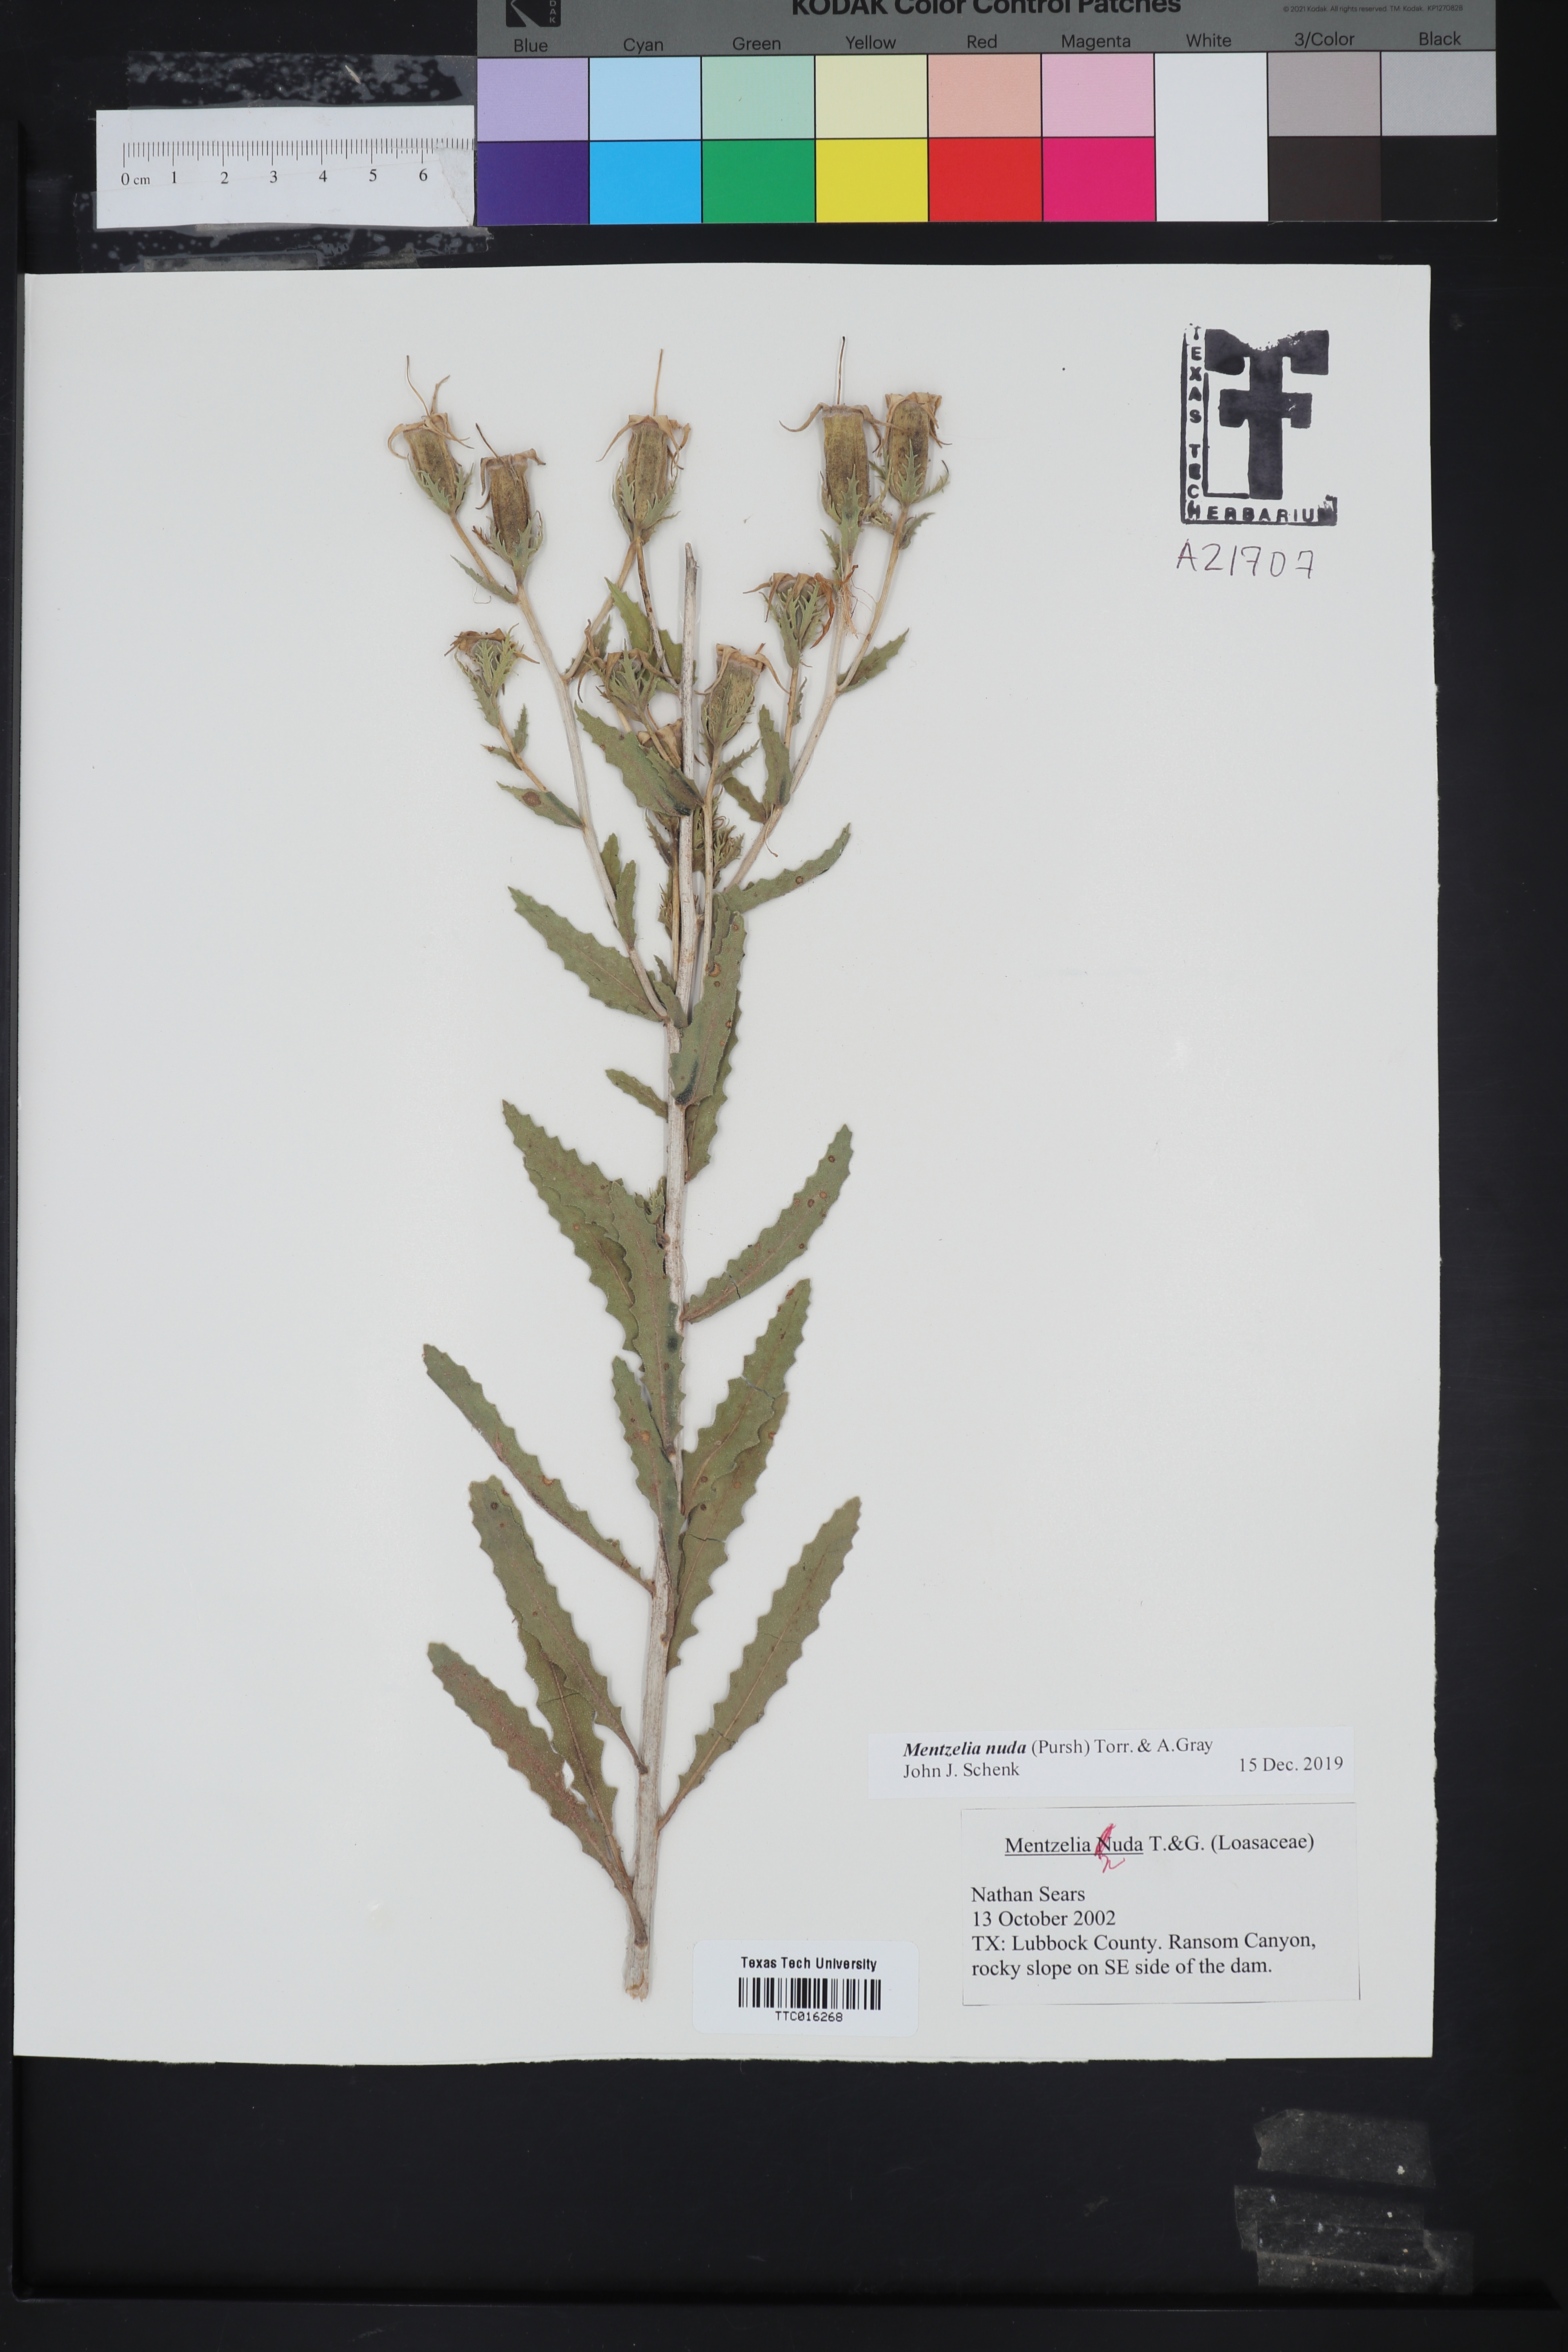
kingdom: Plantae
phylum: Tracheophyta
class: Magnoliopsida
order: Cornales
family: Loasaceae
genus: Mentzelia
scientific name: Mentzelia nuda
